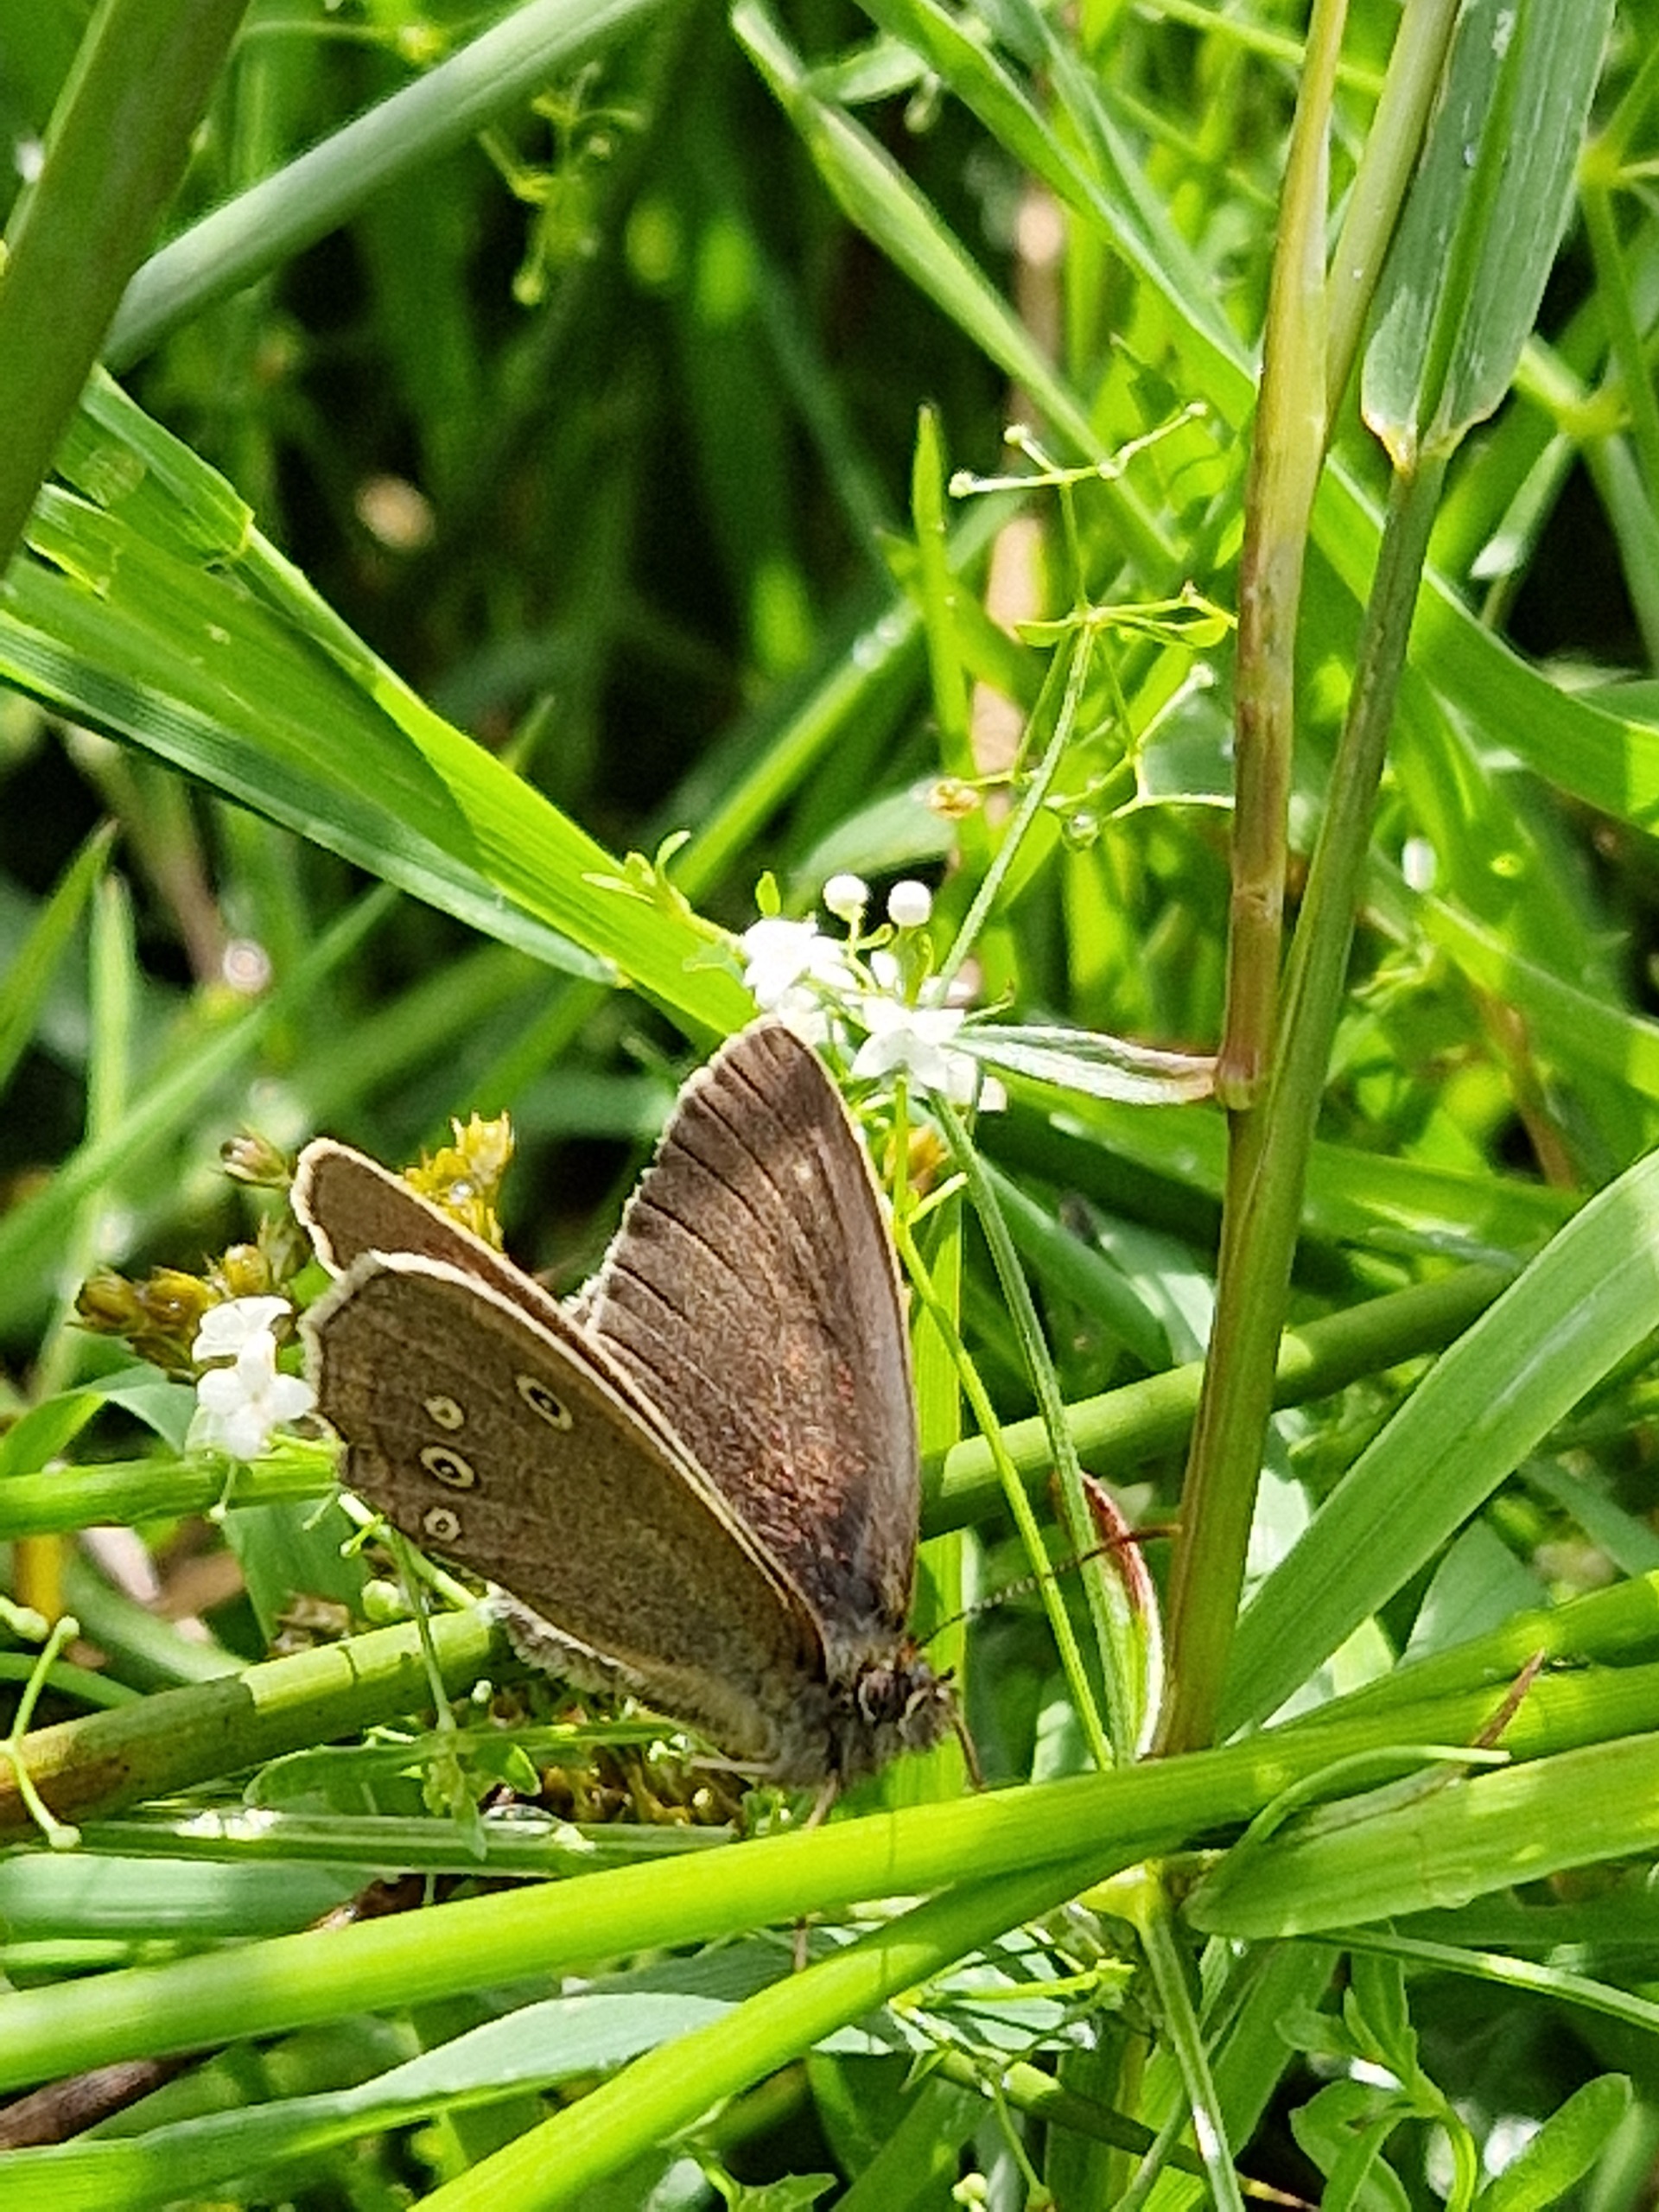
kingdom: Animalia
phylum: Arthropoda
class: Insecta
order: Lepidoptera
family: Nymphalidae
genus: Aphantopus
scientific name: Aphantopus hyperantus
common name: Engrandøje
